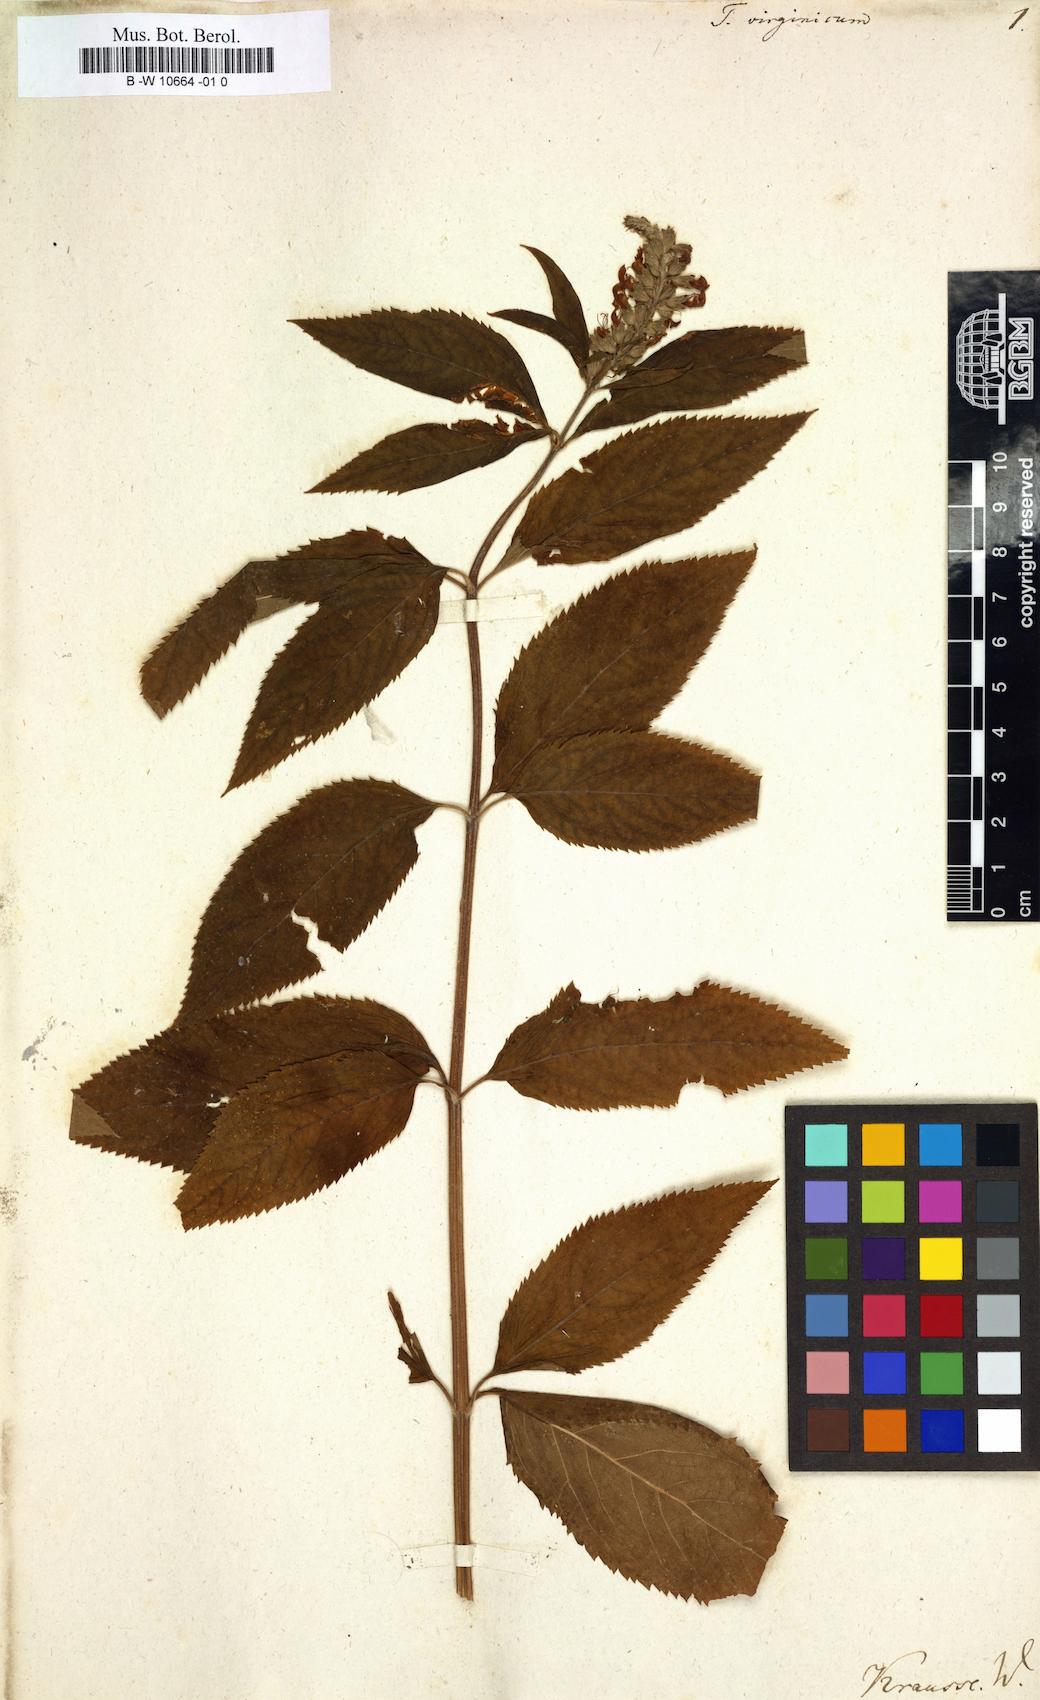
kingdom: Plantae
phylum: Tracheophyta
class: Magnoliopsida
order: Lamiales
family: Lamiaceae
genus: Teucrium
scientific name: Teucrium canadense
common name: American germander
